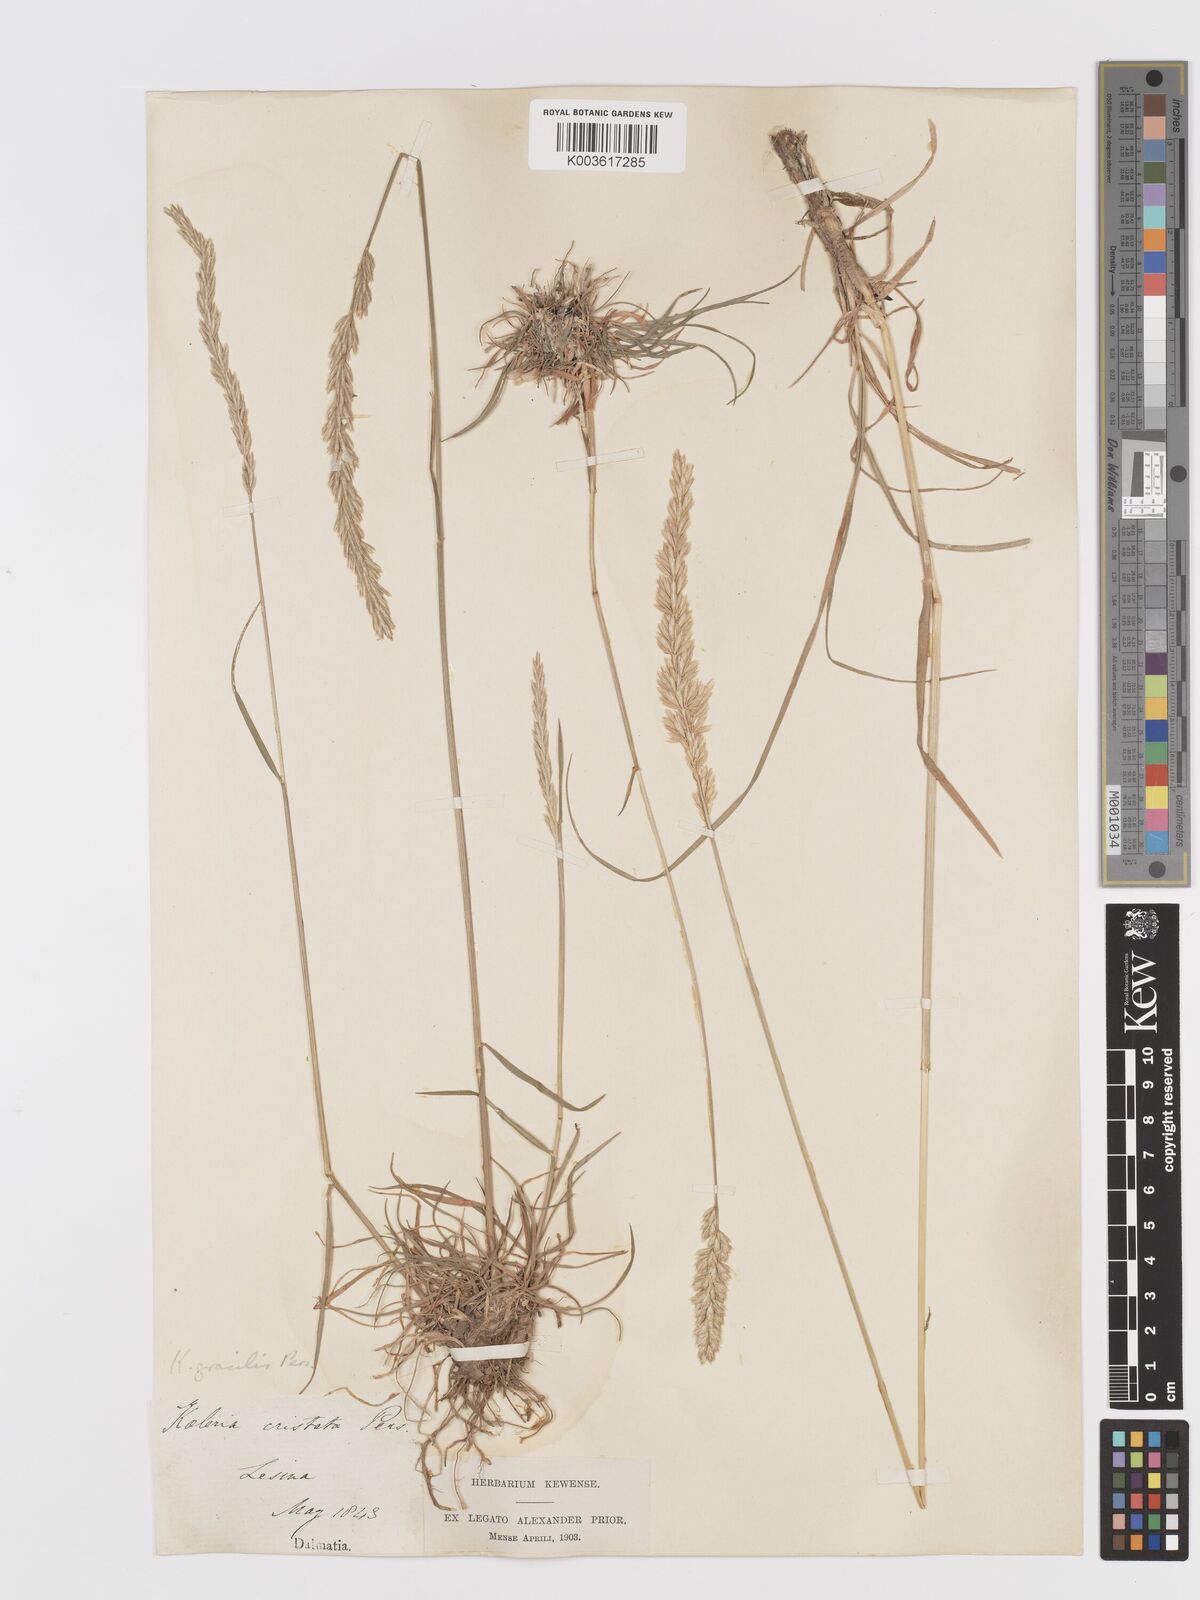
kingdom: Plantae
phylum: Tracheophyta
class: Liliopsida
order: Poales
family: Poaceae
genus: Koeleria
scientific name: Koeleria macrantha
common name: Crested hair-grass
